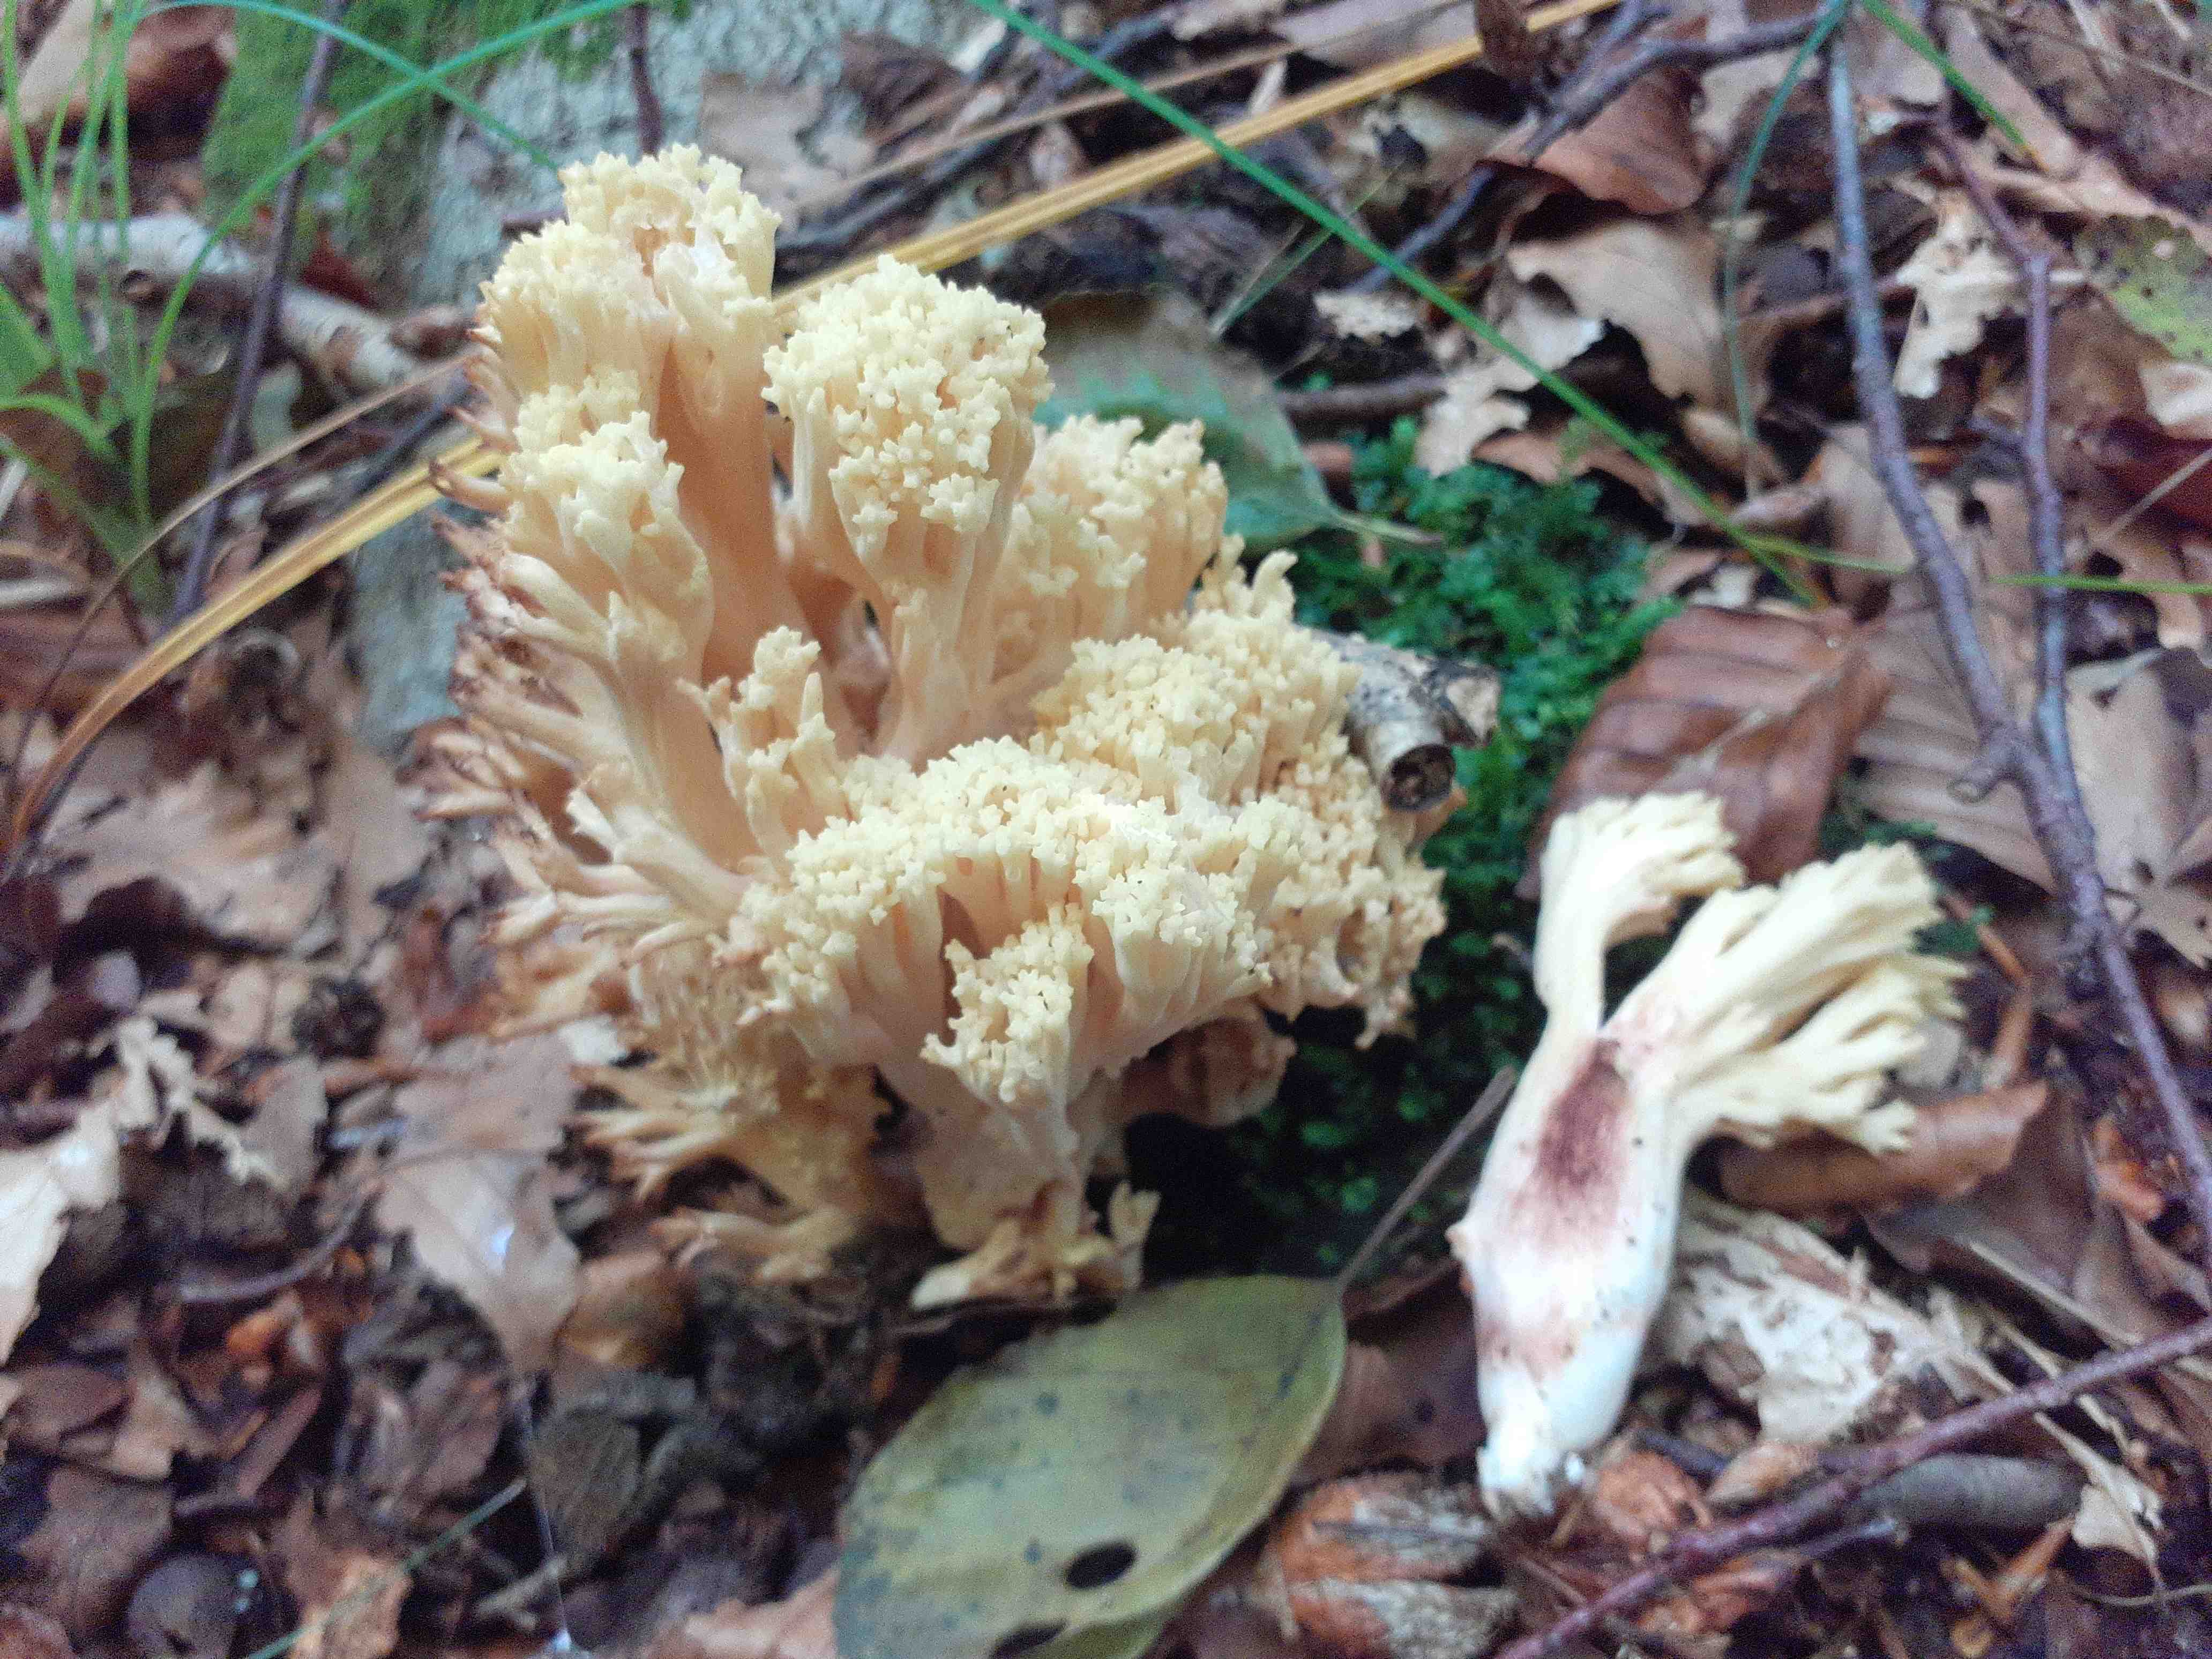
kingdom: Fungi
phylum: Basidiomycota
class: Agaricomycetes
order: Gomphales
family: Gomphaceae
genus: Ramaria
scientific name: Ramaria sanguinea
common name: blodplettet koralsvamp
